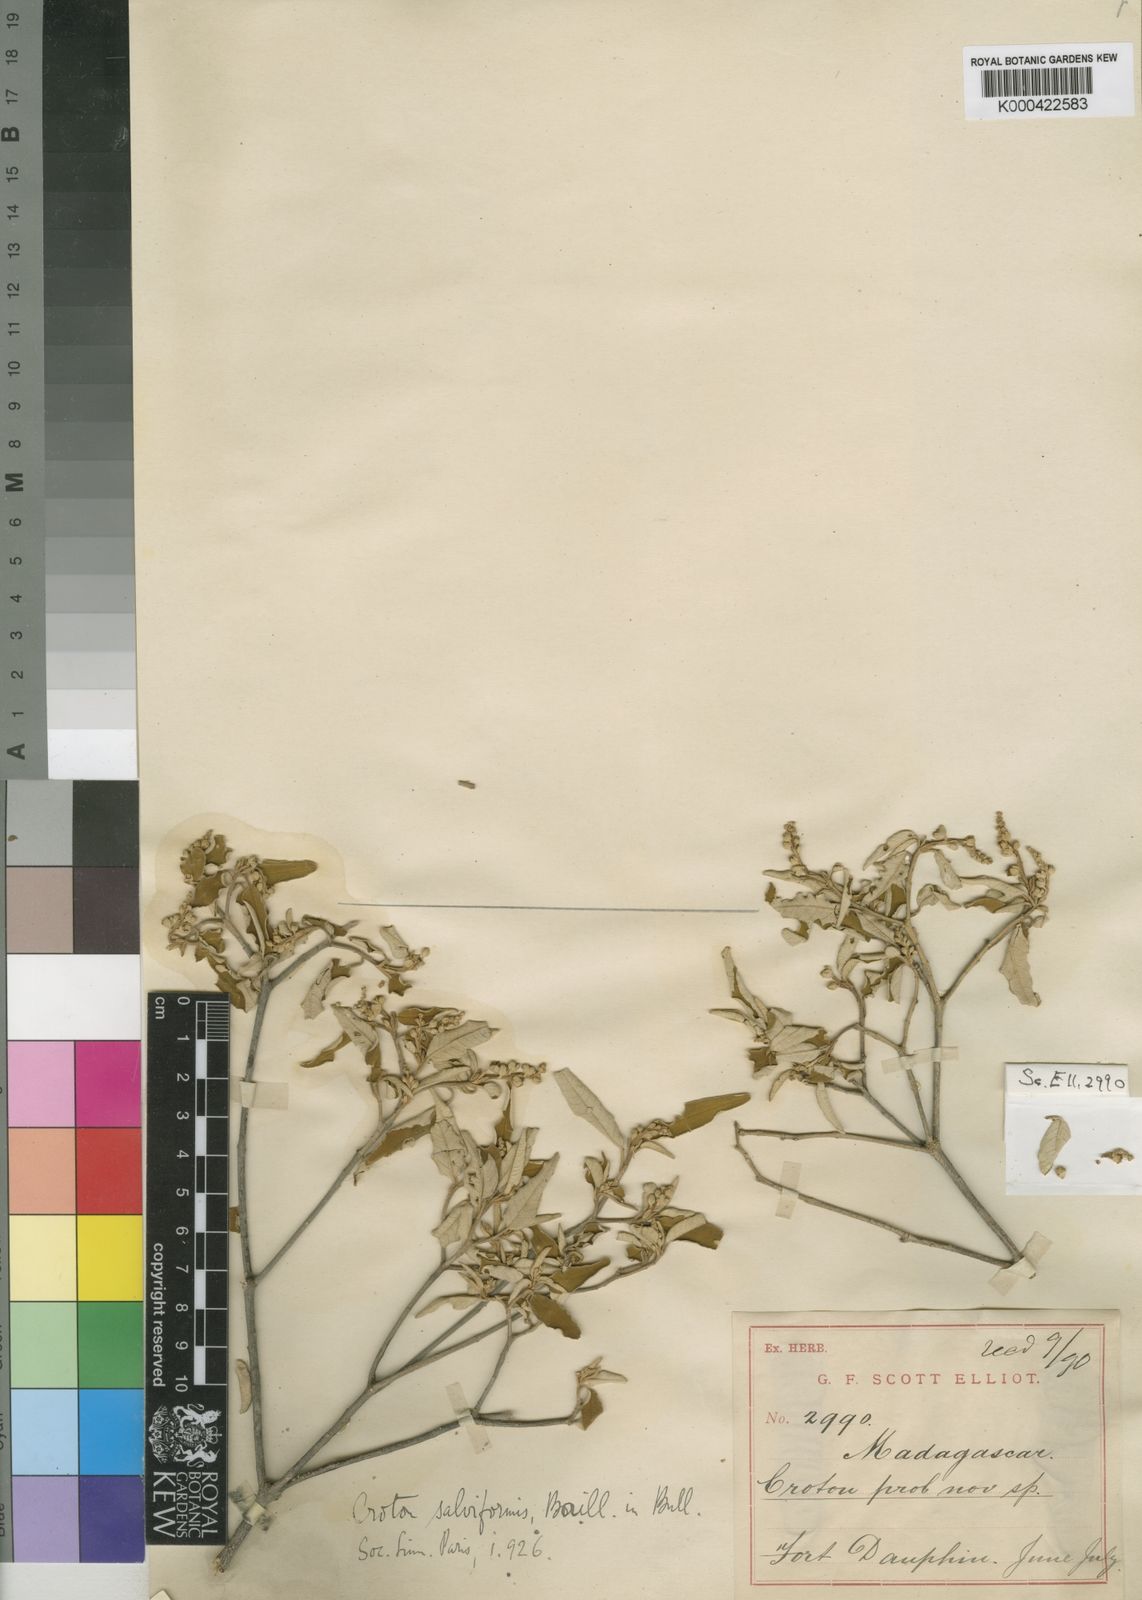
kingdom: Plantae
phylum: Tracheophyta
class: Magnoliopsida
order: Malpighiales
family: Euphorbiaceae
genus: Croton
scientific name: Croton salviformis
